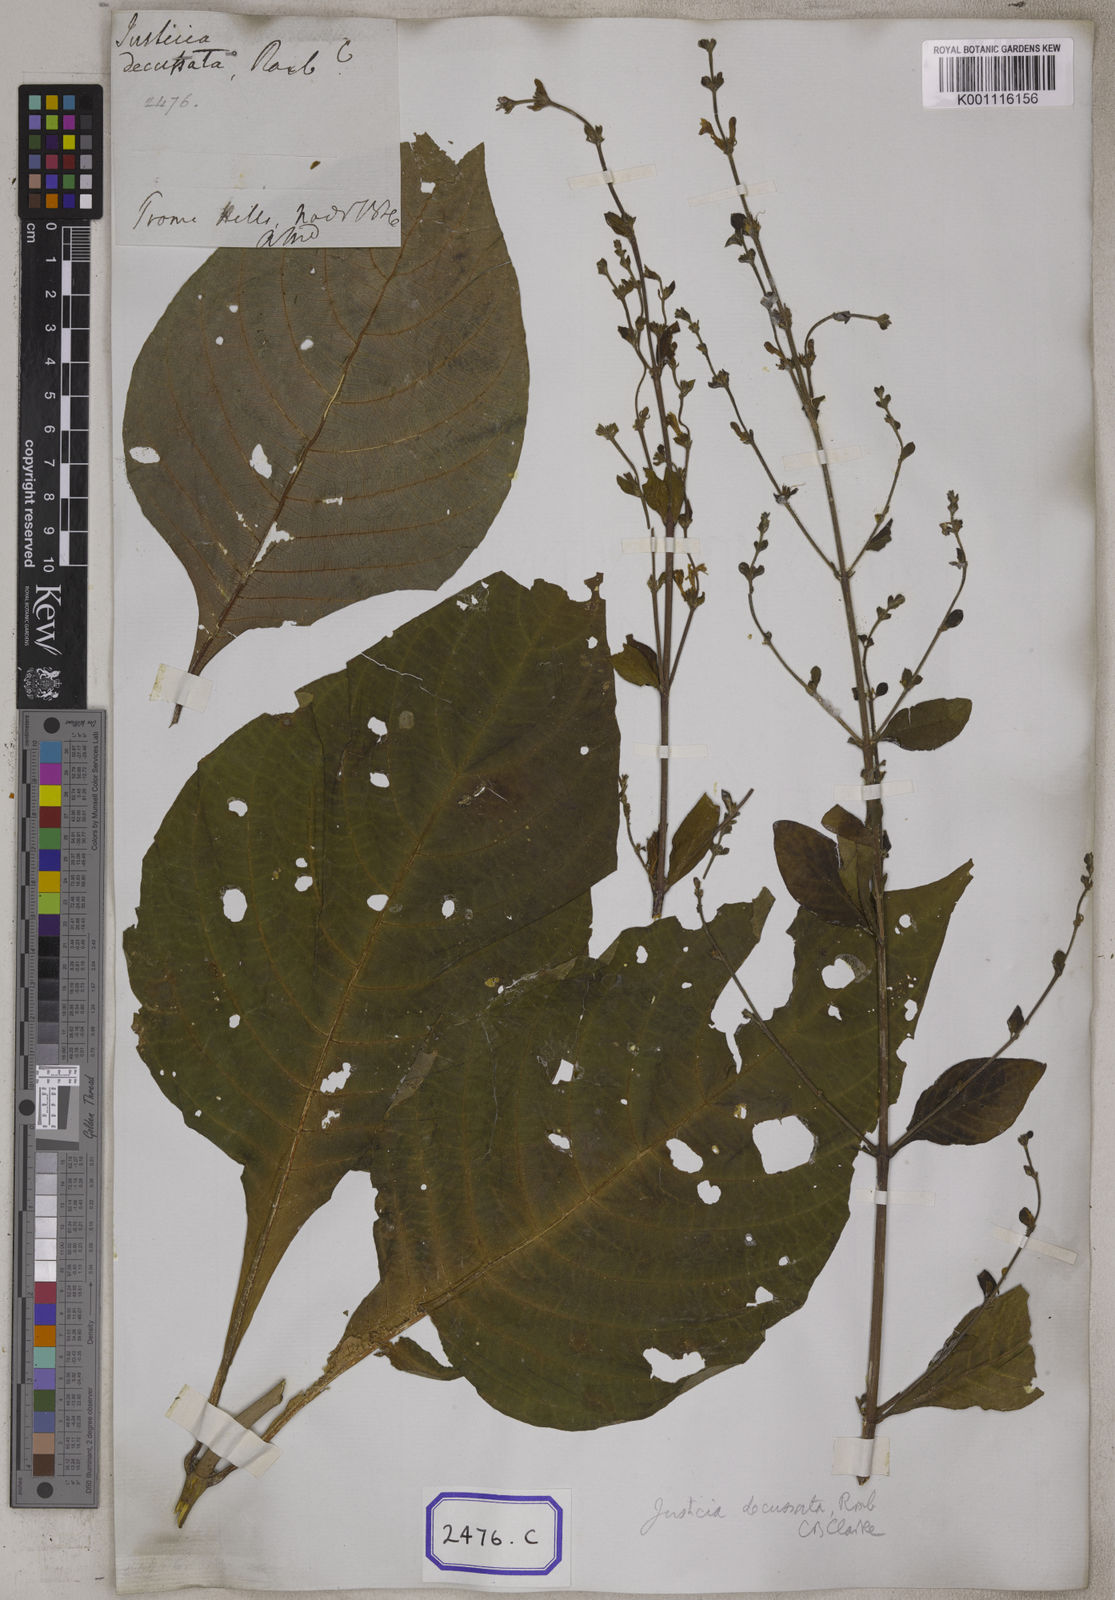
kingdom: Plantae
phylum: Tracheophyta
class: Magnoliopsida
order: Lamiales
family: Acanthaceae
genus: Justicia
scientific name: Justicia decussata
